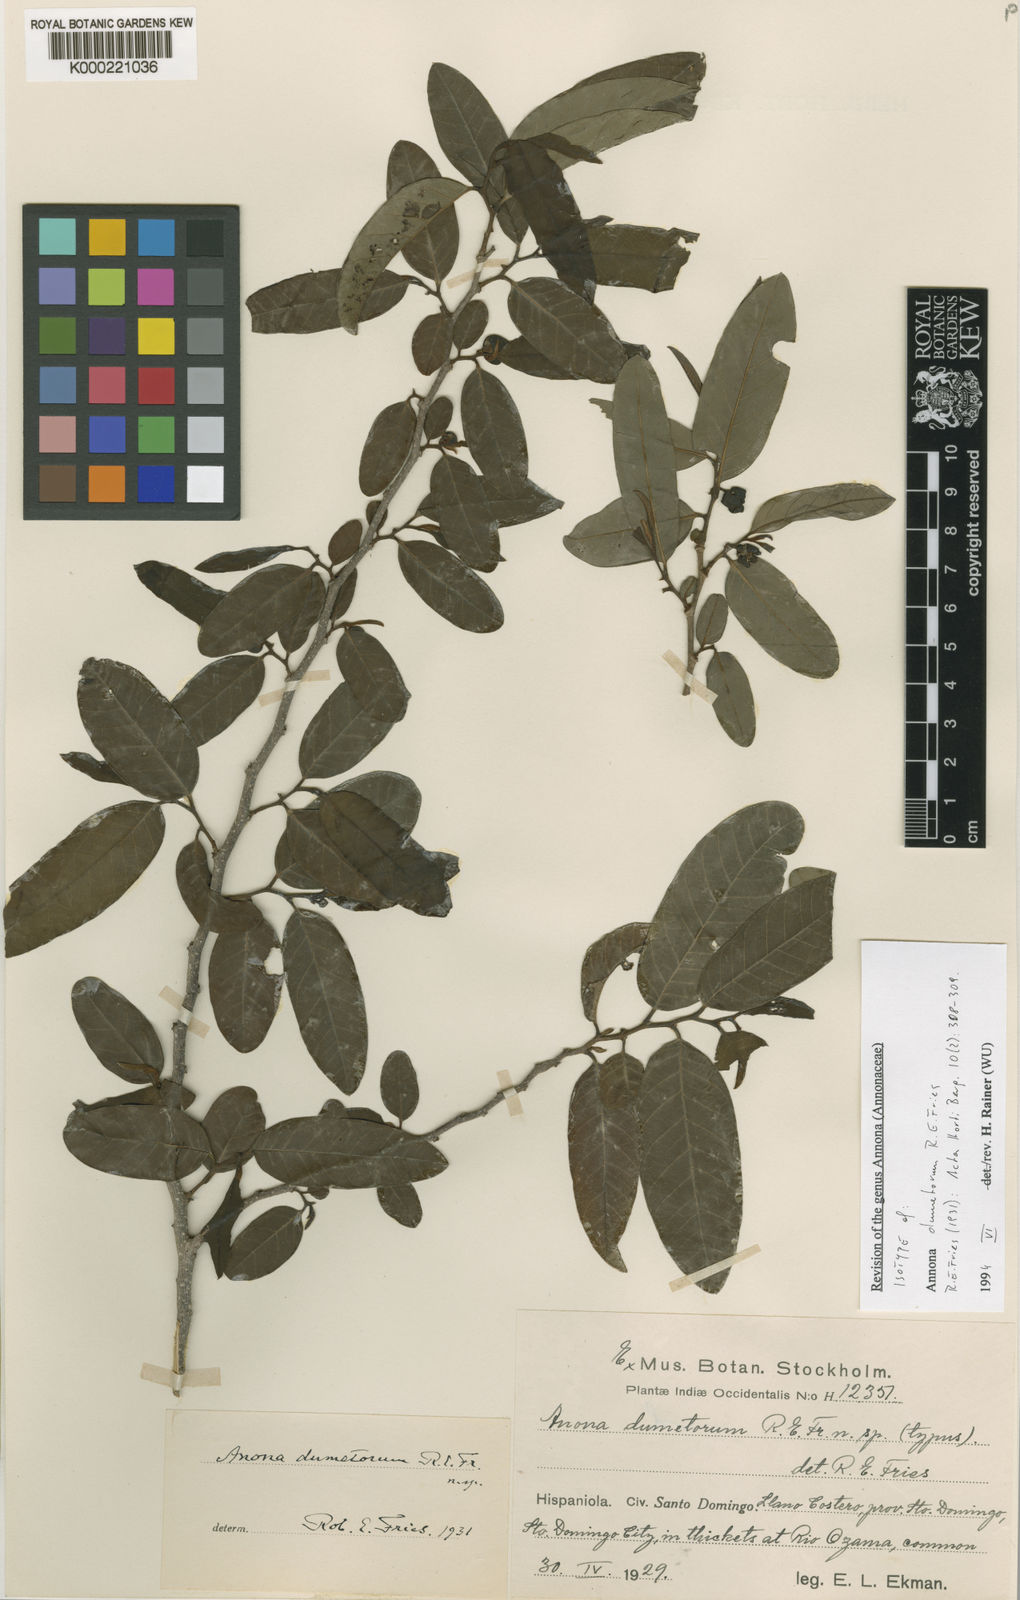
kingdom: Plantae
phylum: Tracheophyta
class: Magnoliopsida
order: Magnoliales
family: Annonaceae
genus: Annona
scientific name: Annona rosei
